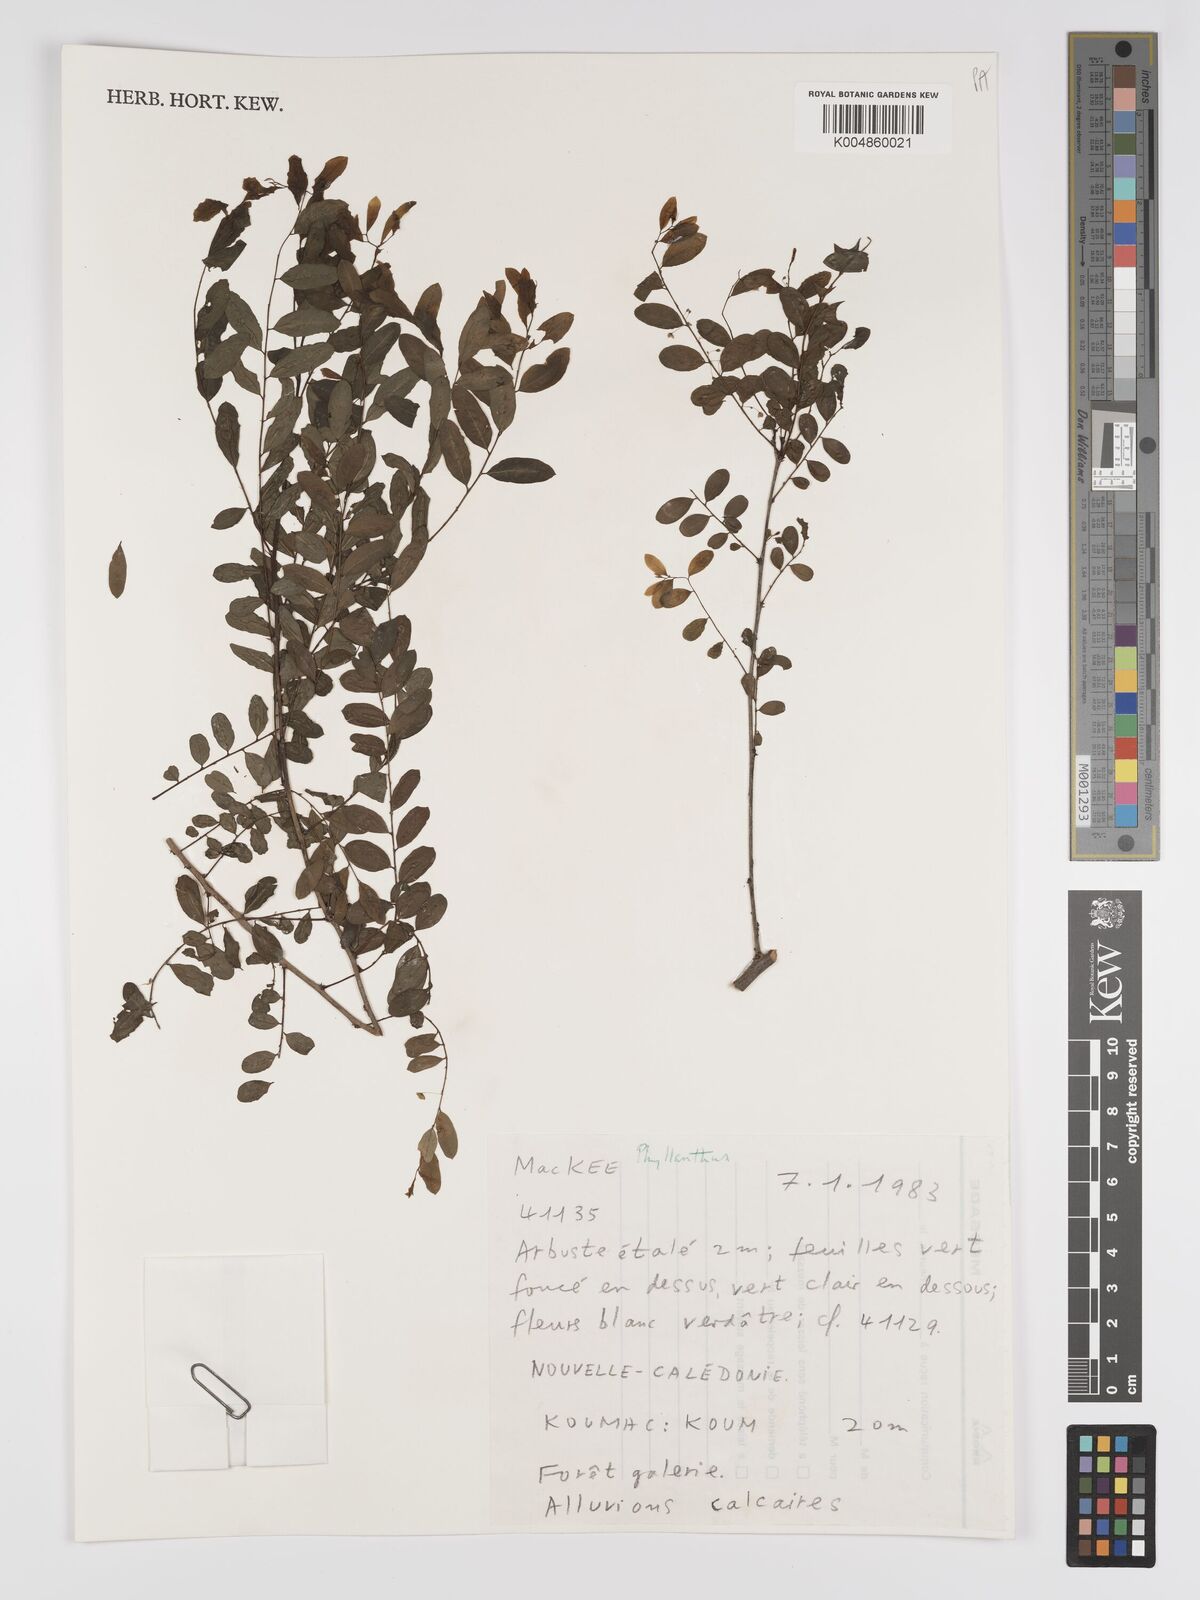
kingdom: Plantae
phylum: Tracheophyta
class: Magnoliopsida
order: Malpighiales
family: Phyllanthaceae
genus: Phyllanthus
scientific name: Phyllanthus
